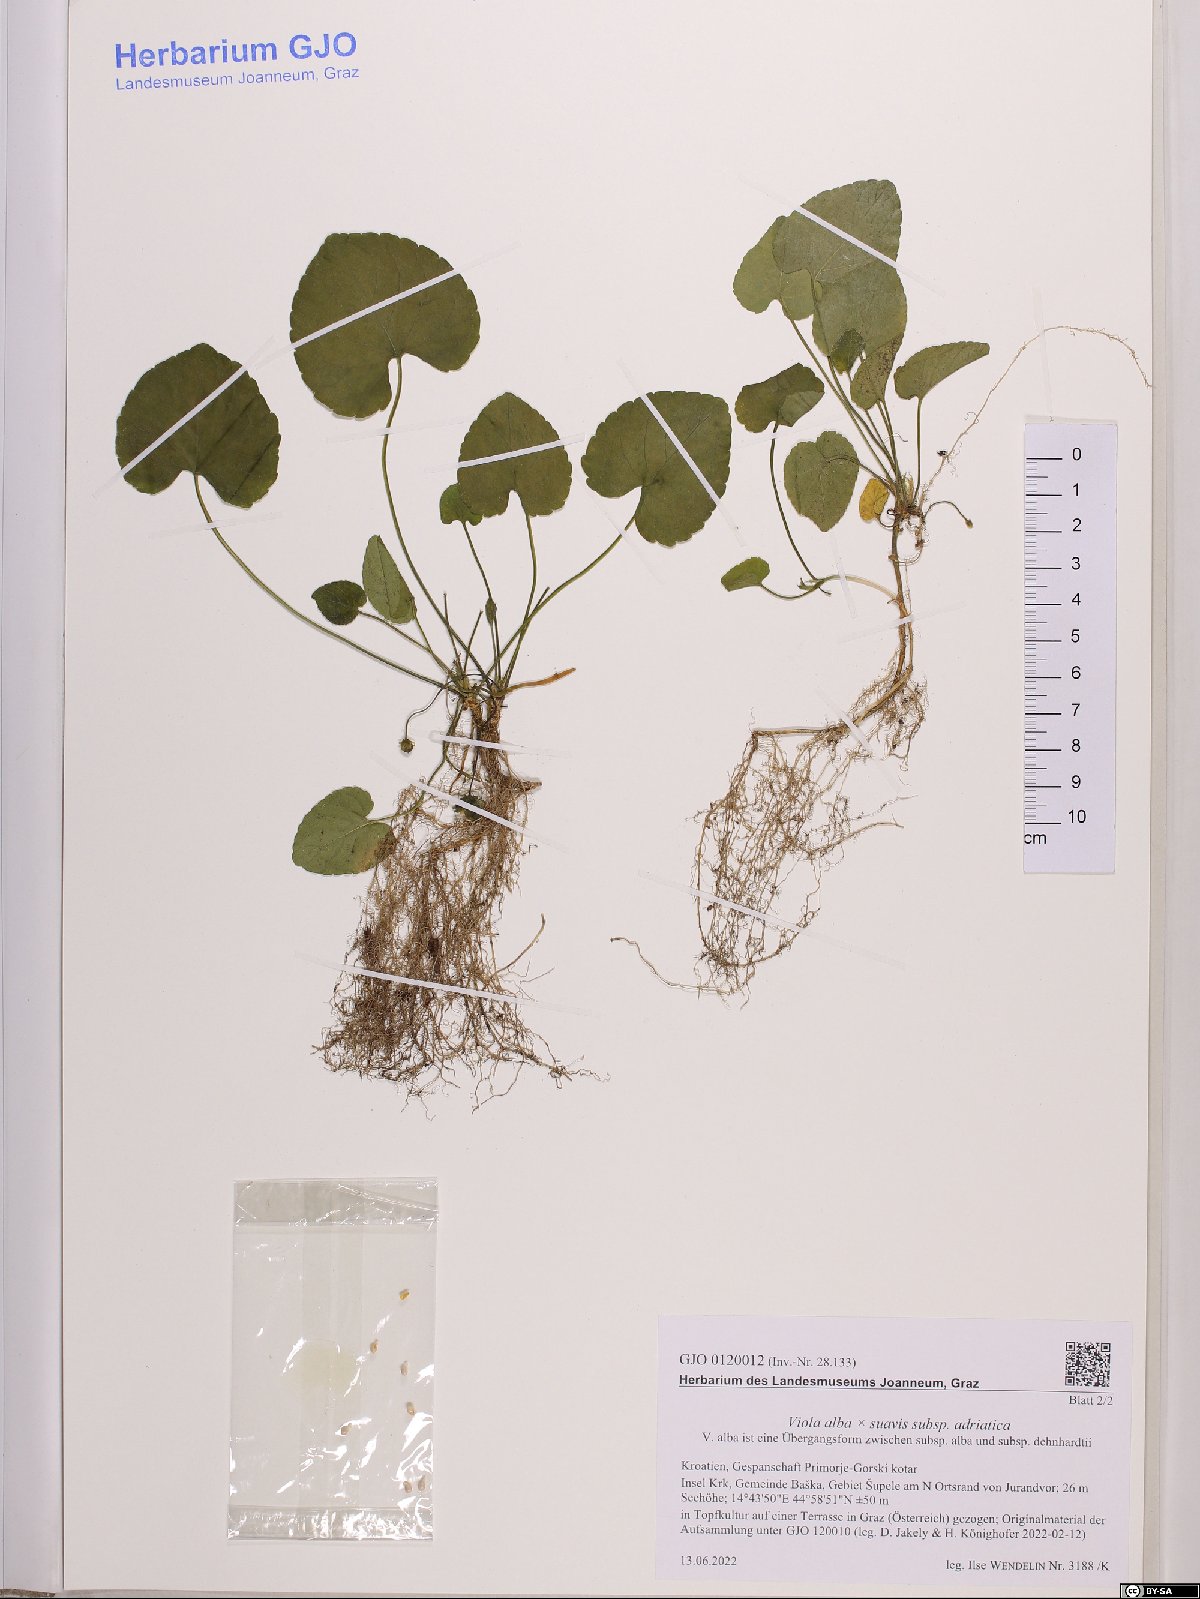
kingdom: Plantae
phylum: Tracheophyta
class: Magnoliopsida
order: Malpighiales
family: Violaceae
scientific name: Violaceae
